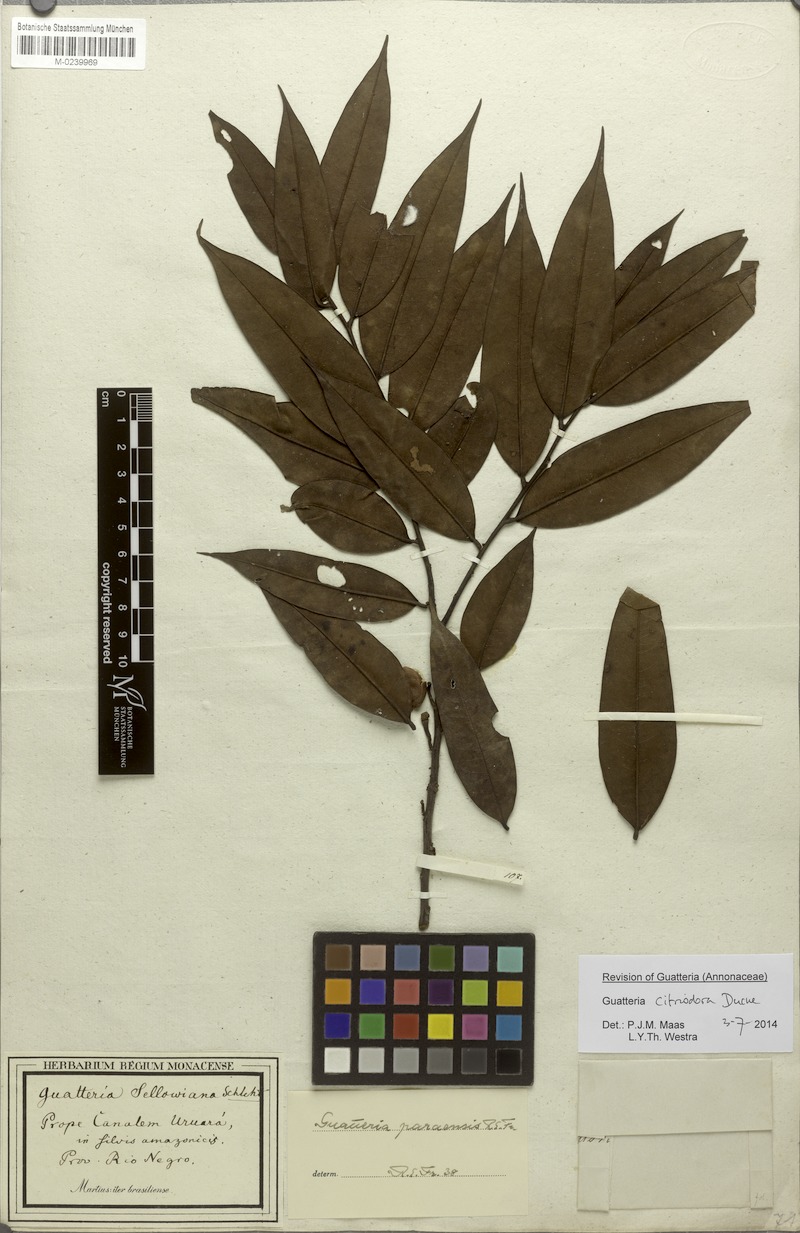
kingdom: Plantae
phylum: Tracheophyta
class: Magnoliopsida
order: Magnoliales
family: Annonaceae
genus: Guatteria
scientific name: Guatteria citriodora
